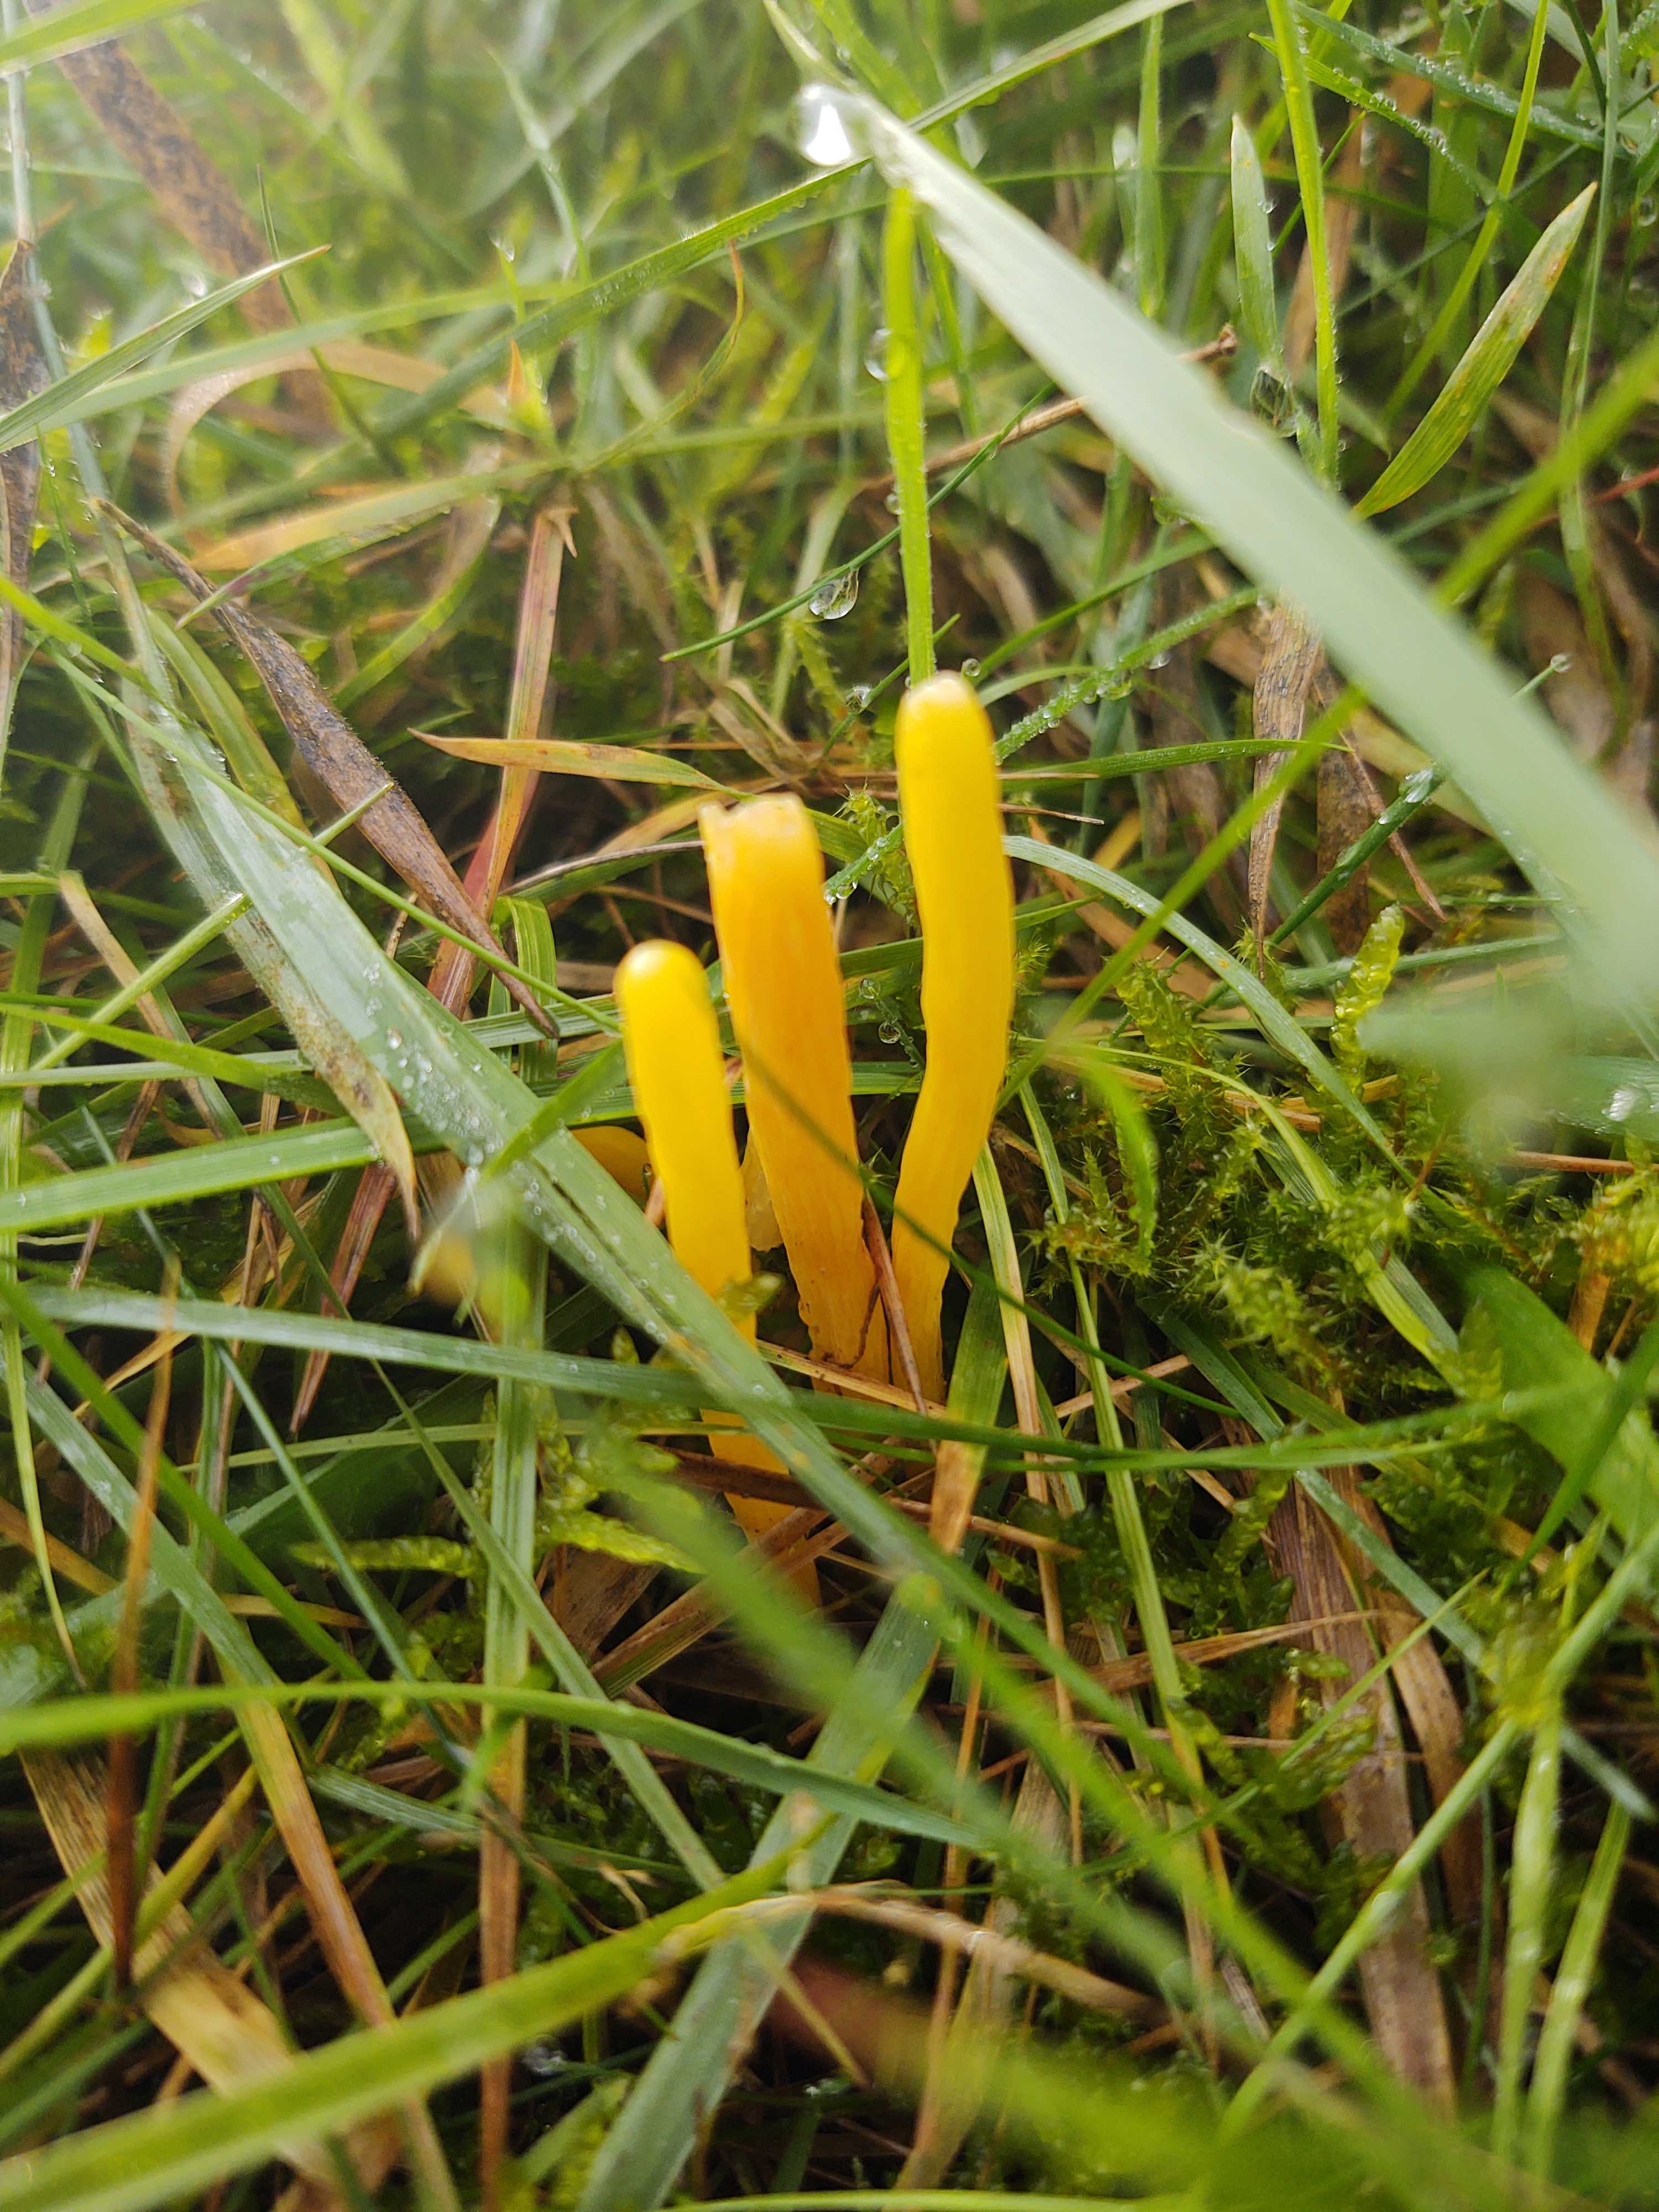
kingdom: Fungi
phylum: Basidiomycota
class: Agaricomycetes
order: Agaricales
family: Clavariaceae
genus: Clavulinopsis
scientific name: Clavulinopsis
